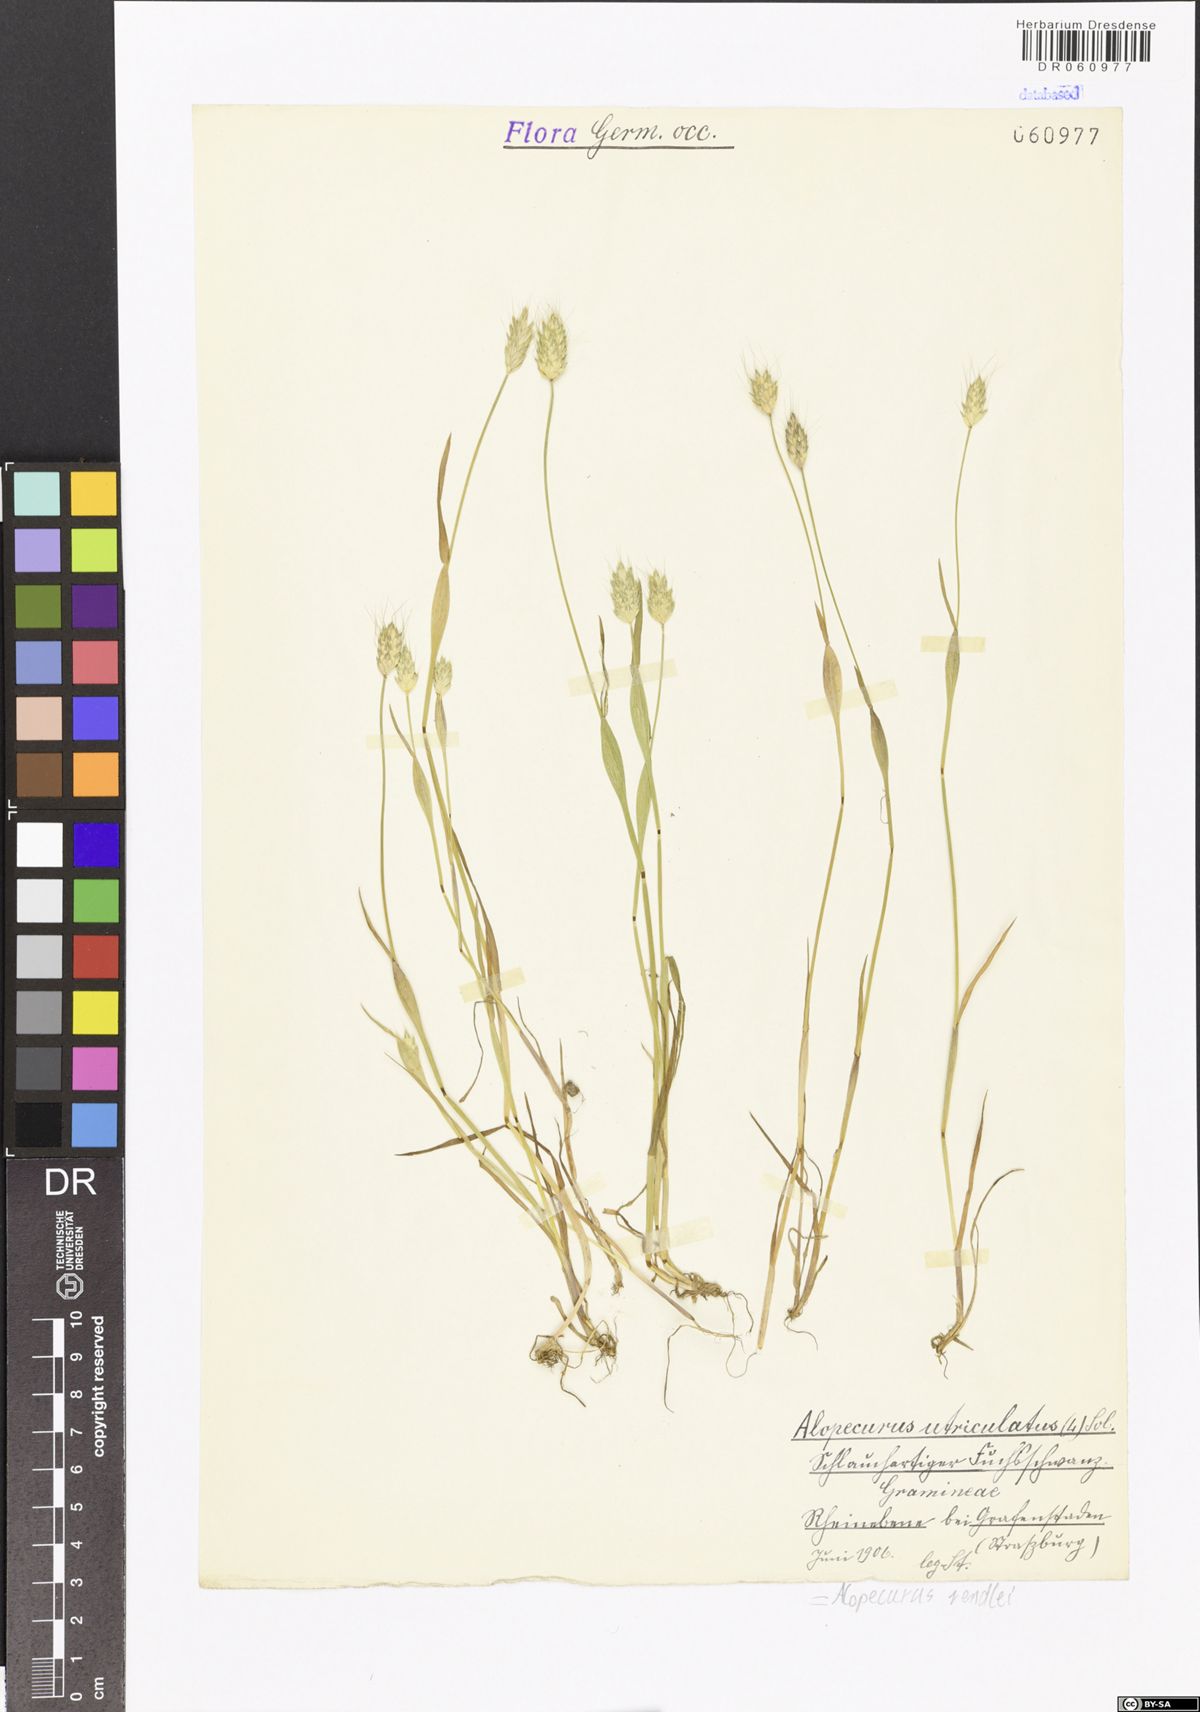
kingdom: Plantae
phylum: Tracheophyta
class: Liliopsida
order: Poales
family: Poaceae
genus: Alopecurus
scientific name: Alopecurus rendlei
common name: Rendle's meadow foxtail
